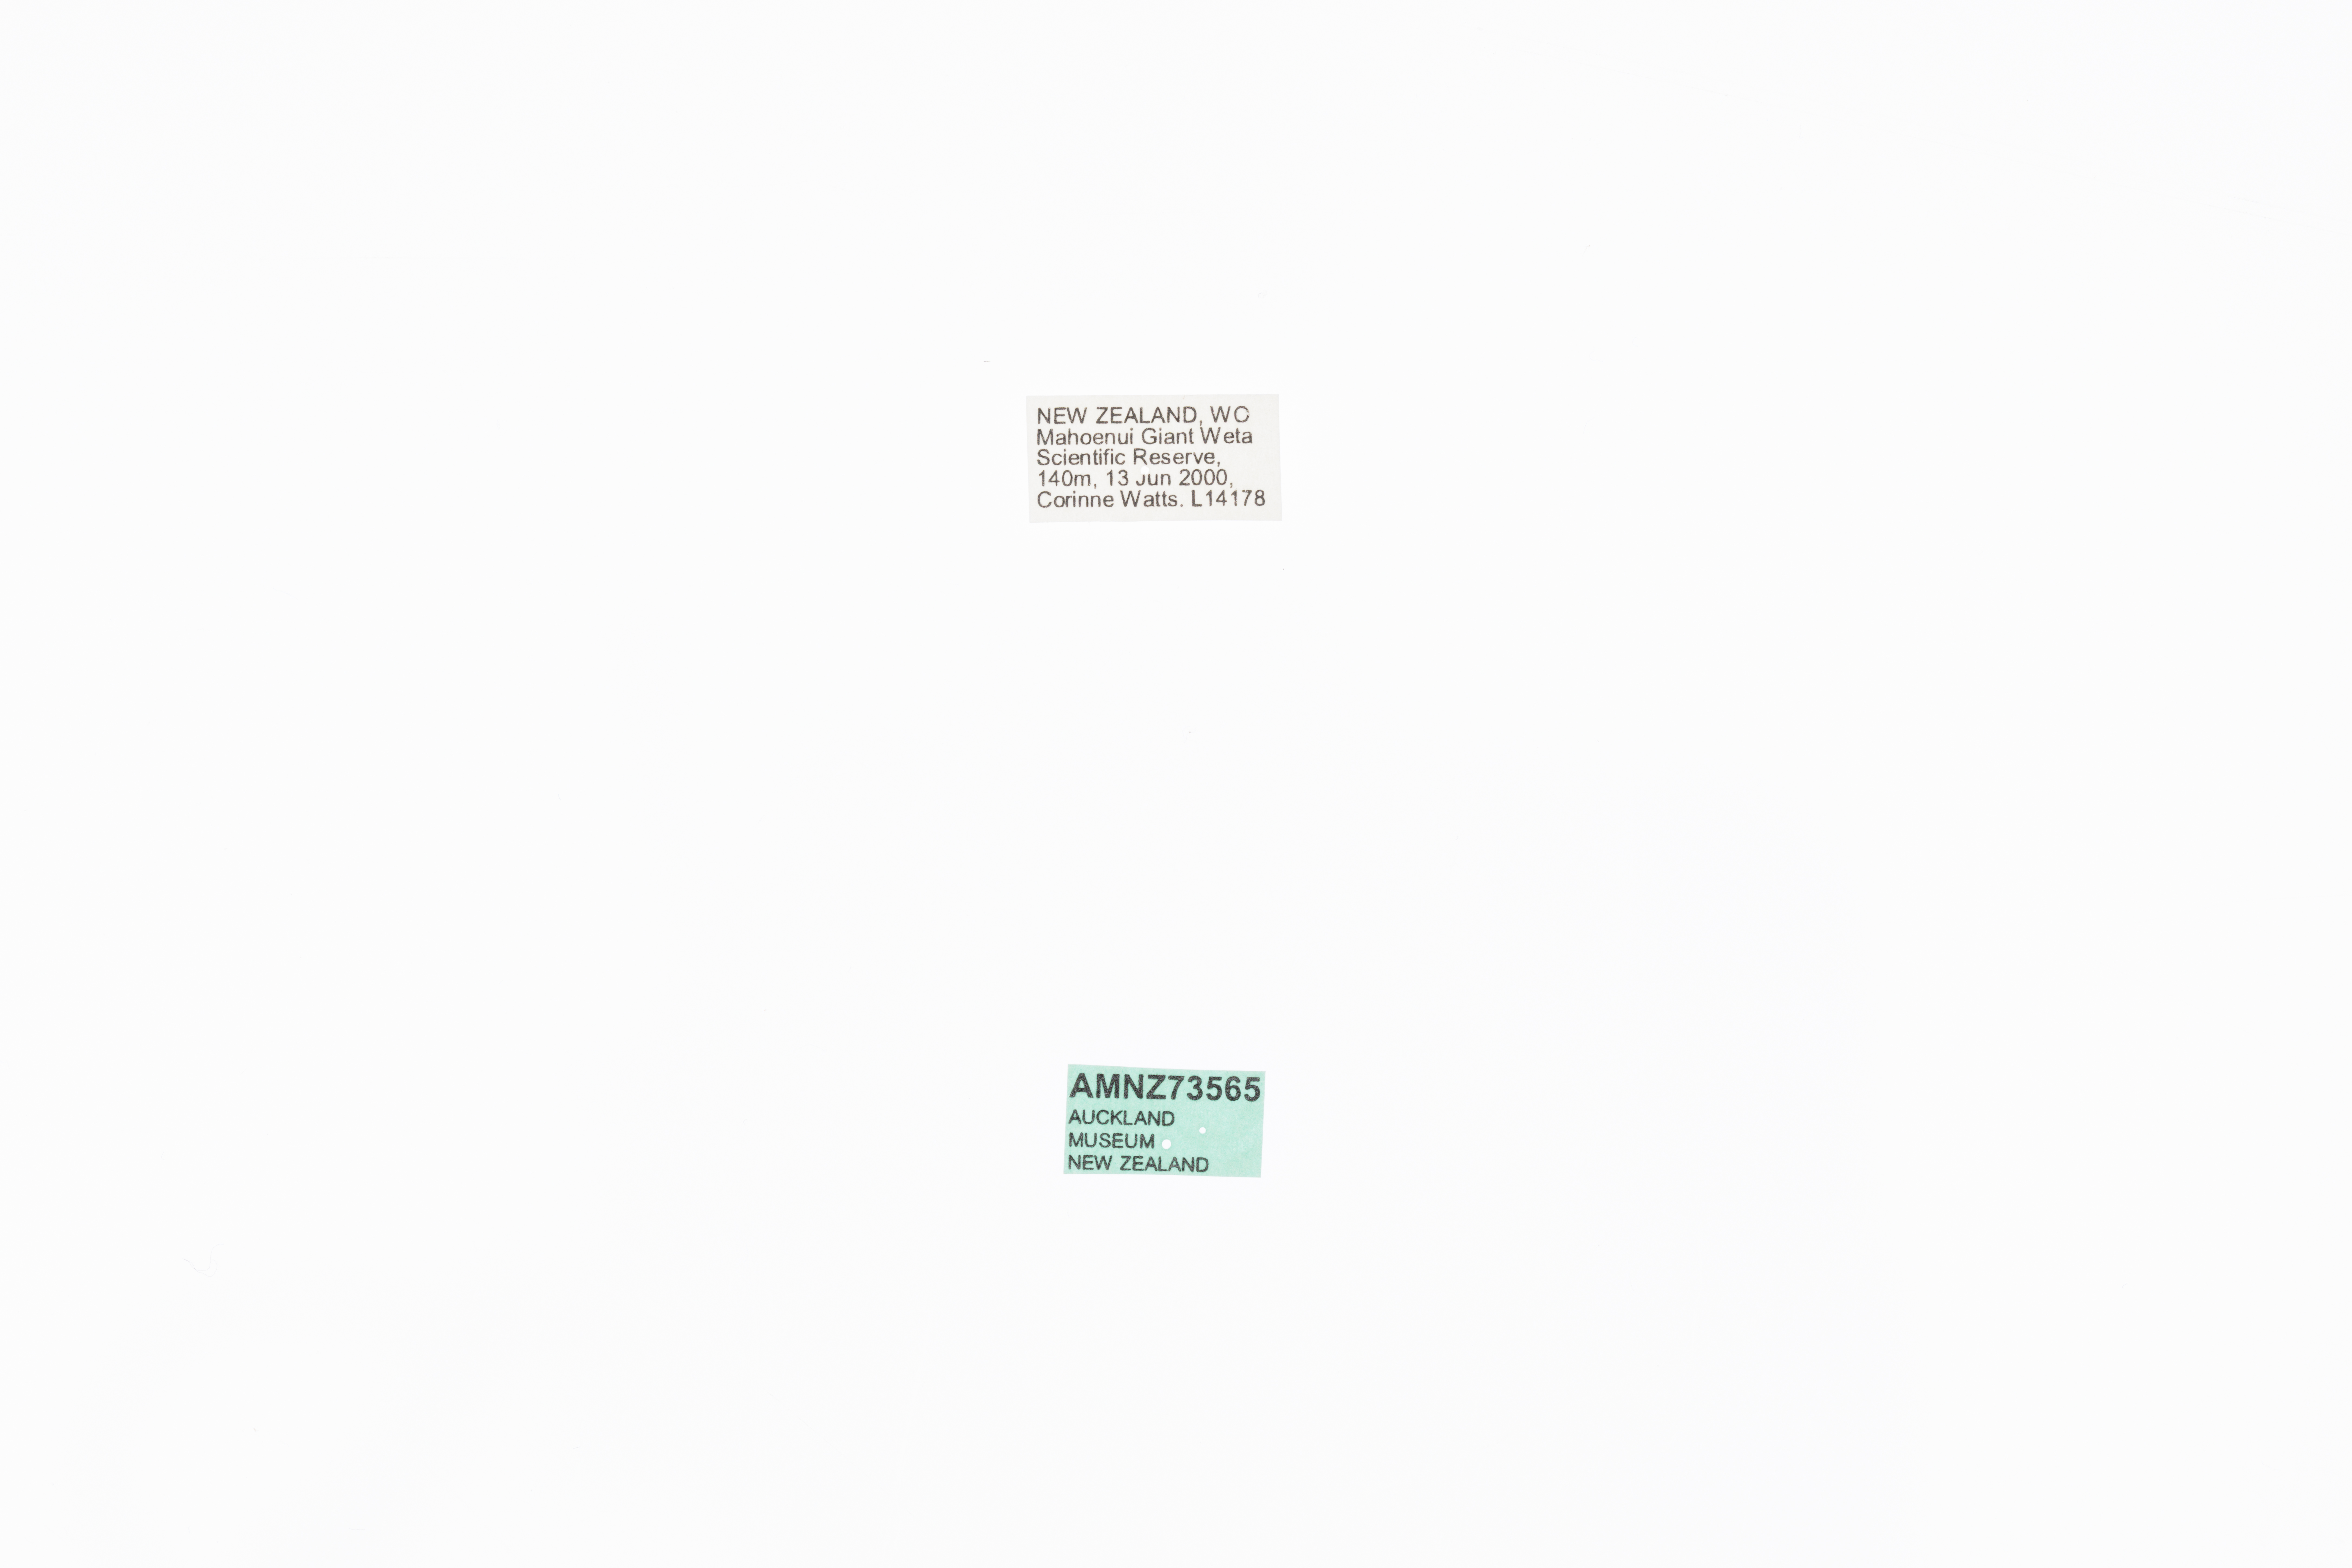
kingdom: Animalia
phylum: Arthropoda
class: Insecta
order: Orthoptera
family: Anostostomatidae
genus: Deinacrida
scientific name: Deinacrida mahoenui
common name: Mahoenui giant weta
